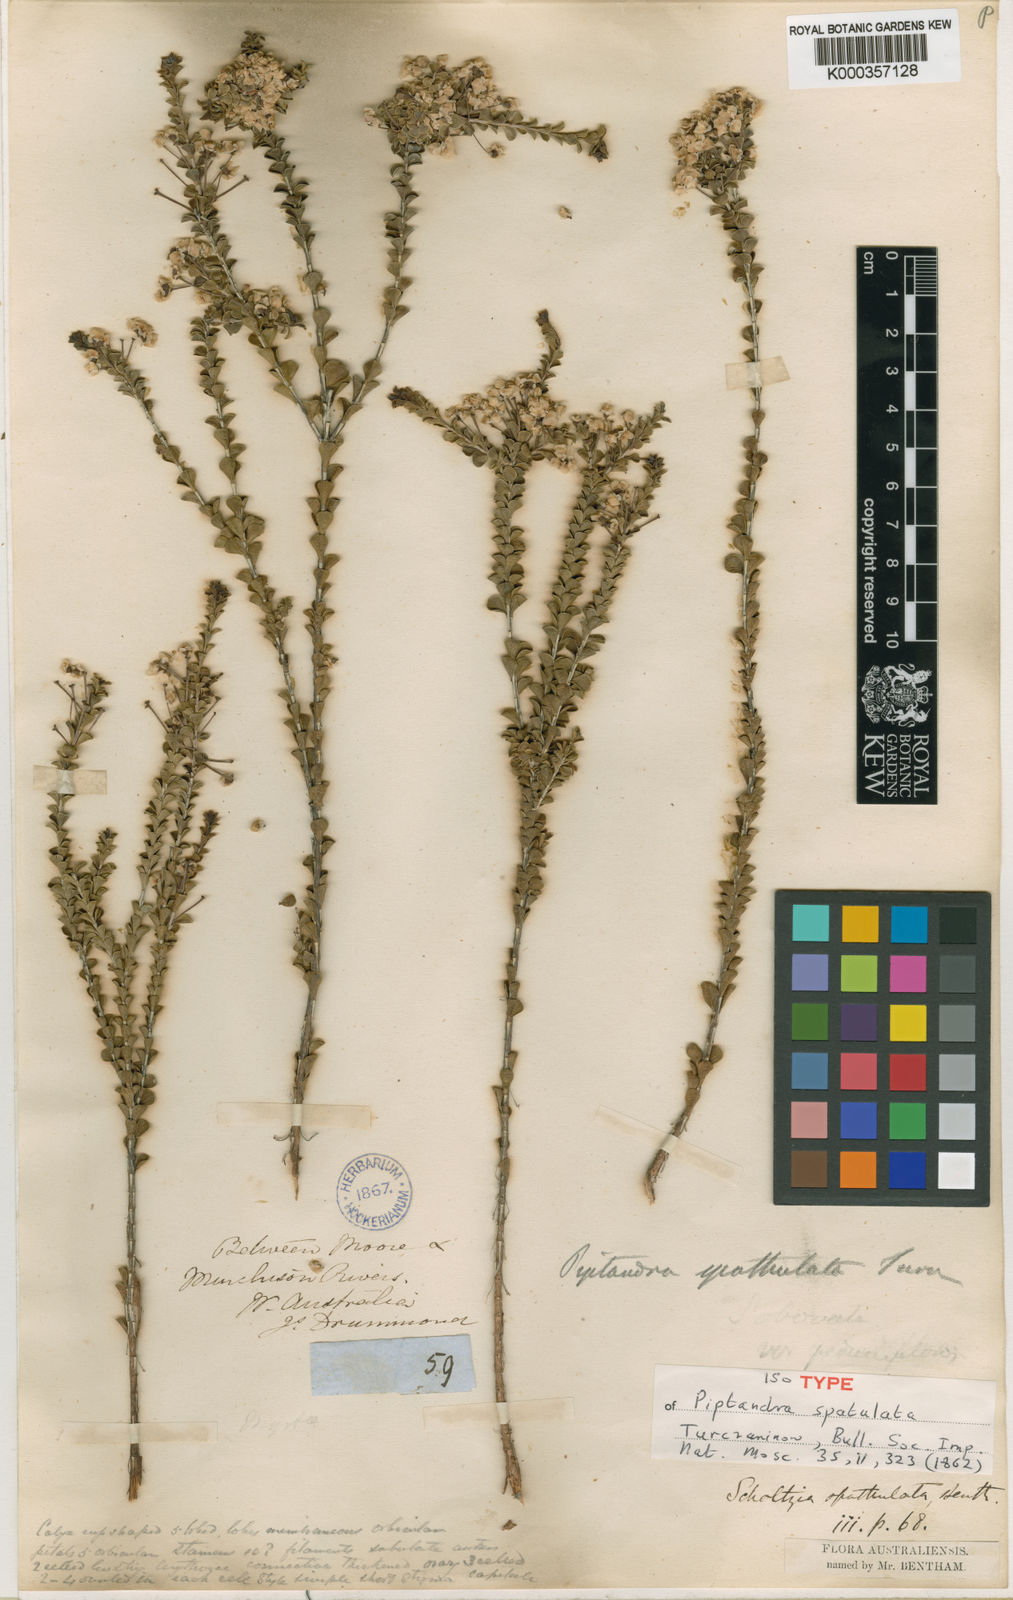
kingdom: Plantae
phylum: Tracheophyta
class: Magnoliopsida
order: Myrtales
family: Myrtaceae
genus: Scholtzia
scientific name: Scholtzia spathulata
